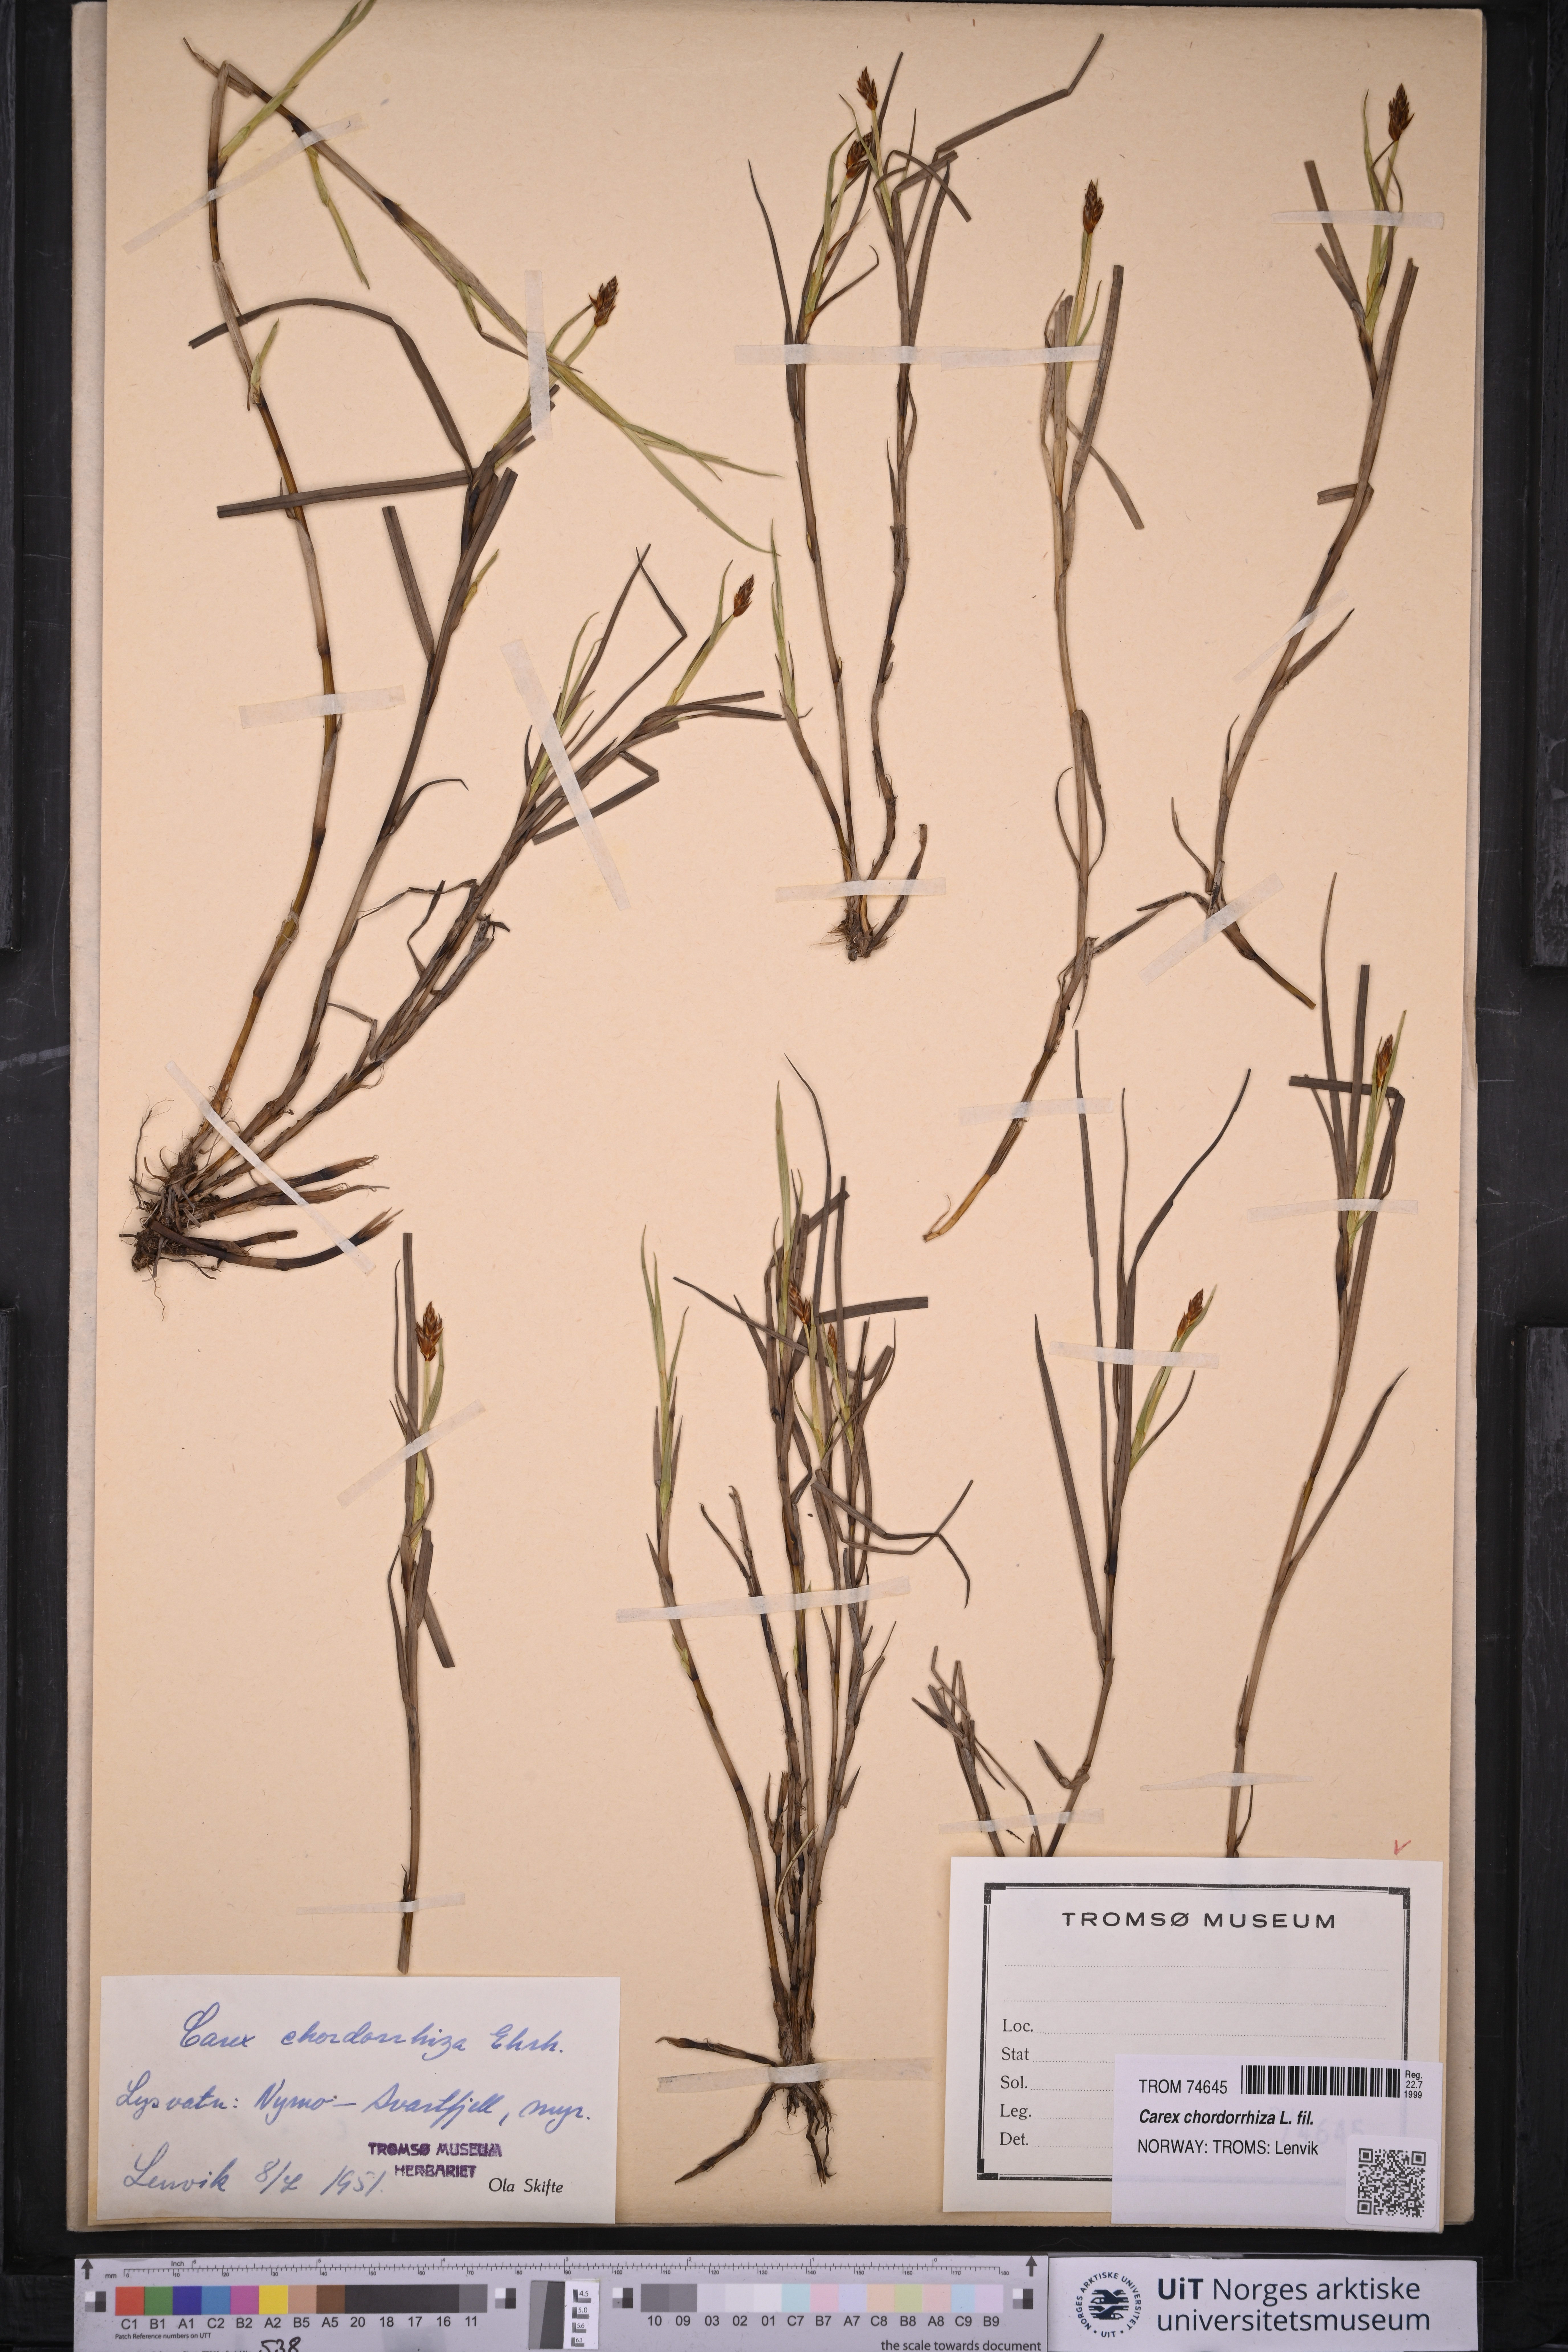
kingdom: Plantae
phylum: Tracheophyta
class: Liliopsida
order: Poales
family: Cyperaceae
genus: Carex
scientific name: Carex chordorrhiza
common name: String sedge
